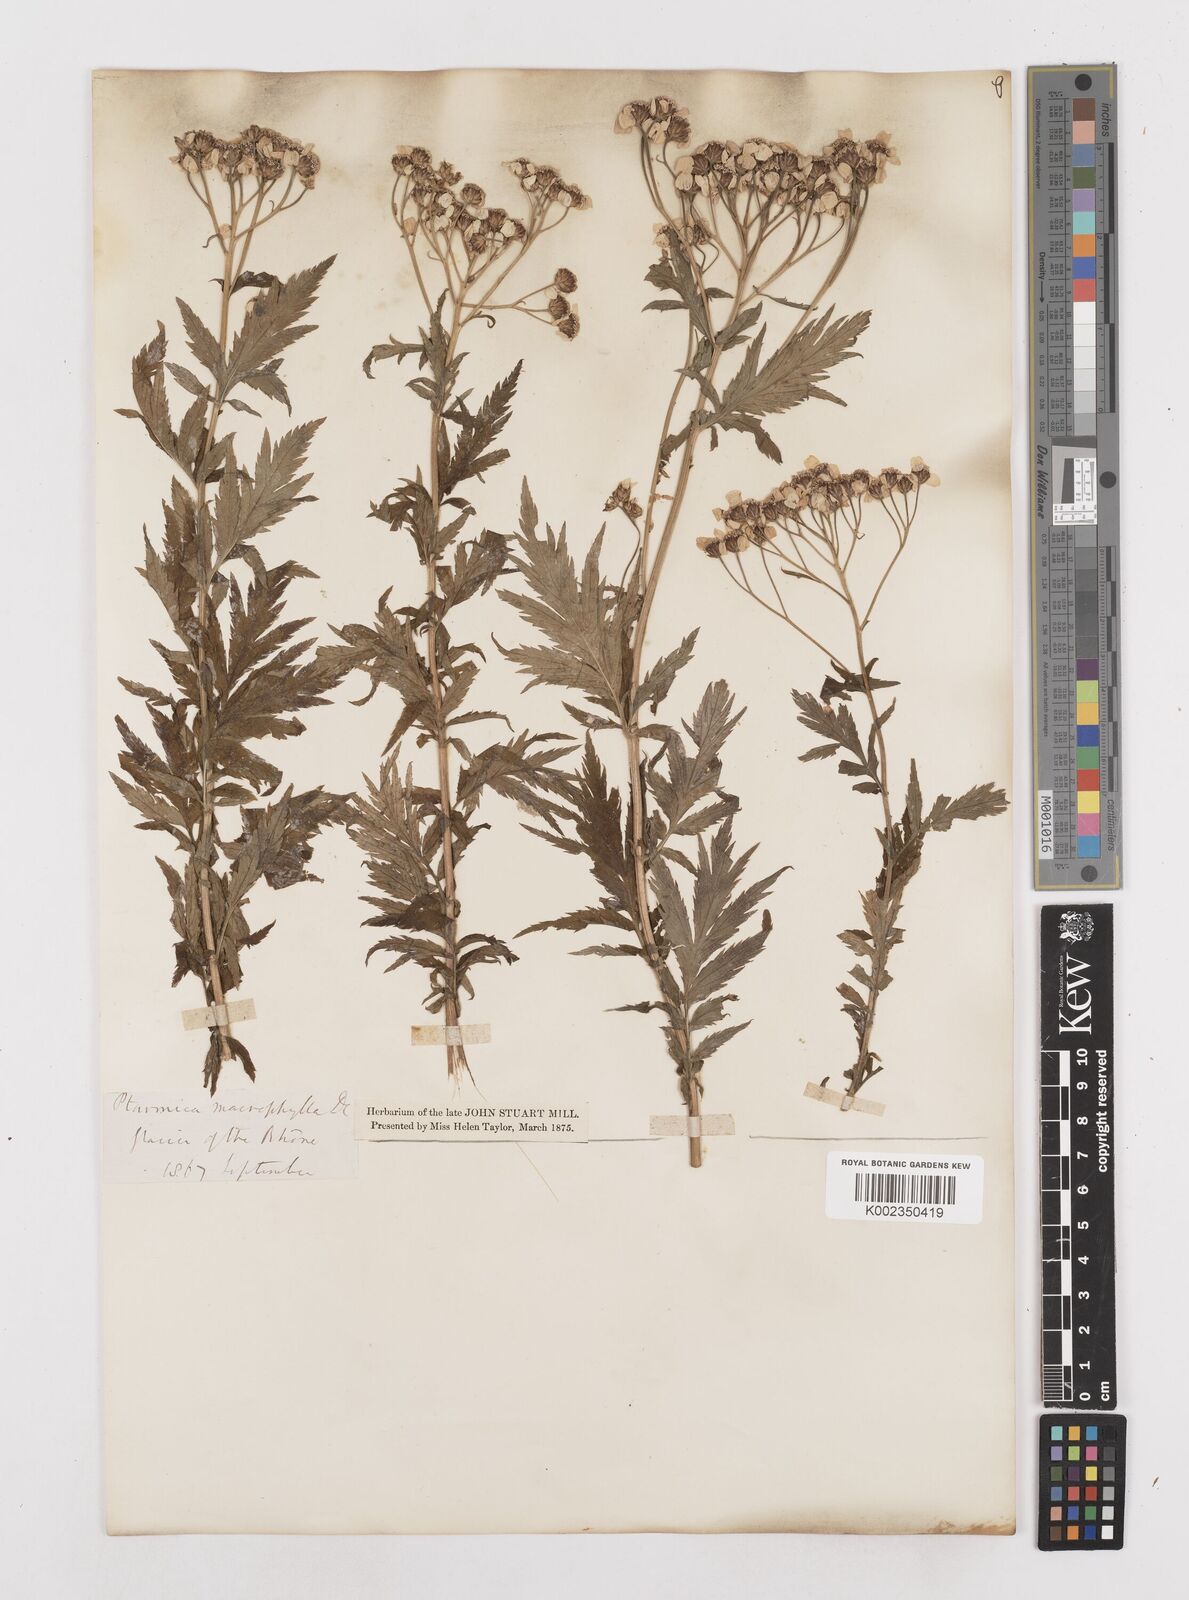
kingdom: Plantae
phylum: Tracheophyta
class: Magnoliopsida
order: Asterales
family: Asteraceae
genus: Achillea
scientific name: Achillea macrophylla
